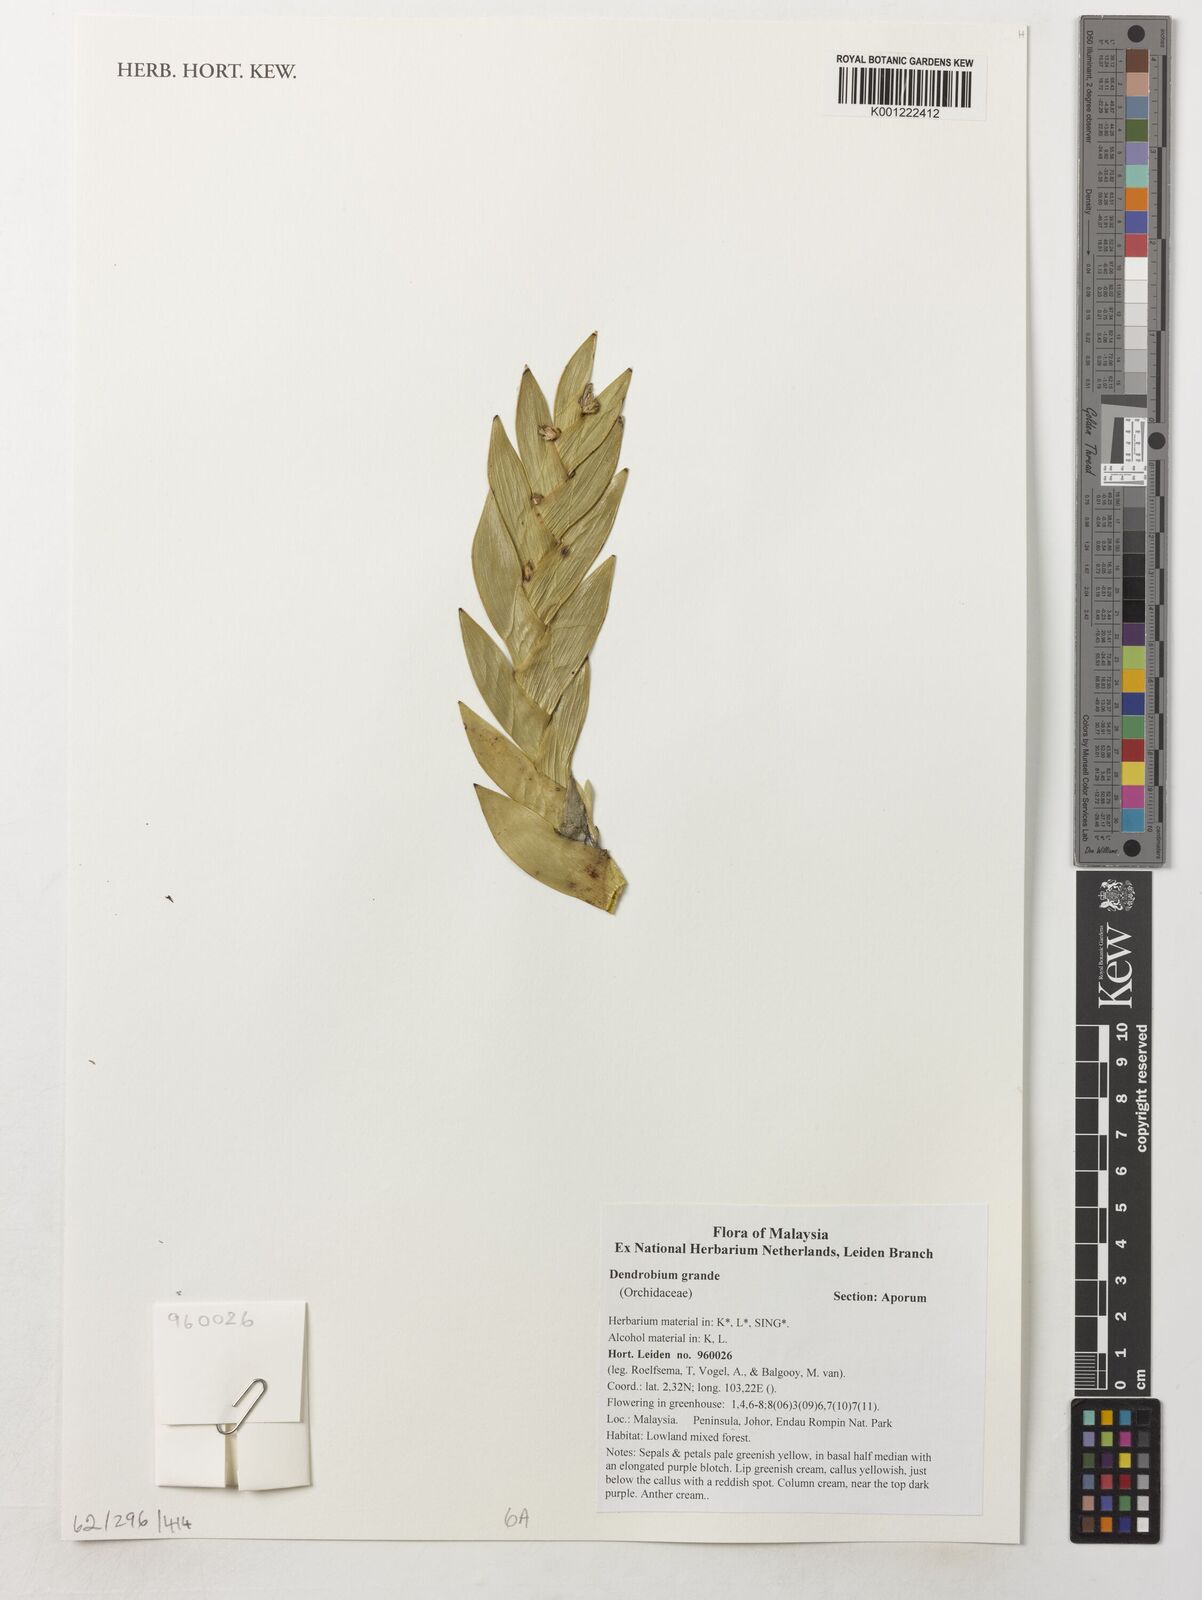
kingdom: Plantae
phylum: Tracheophyta
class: Liliopsida
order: Asparagales
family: Orchidaceae
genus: Dendrobium
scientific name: Dendrobium grande
